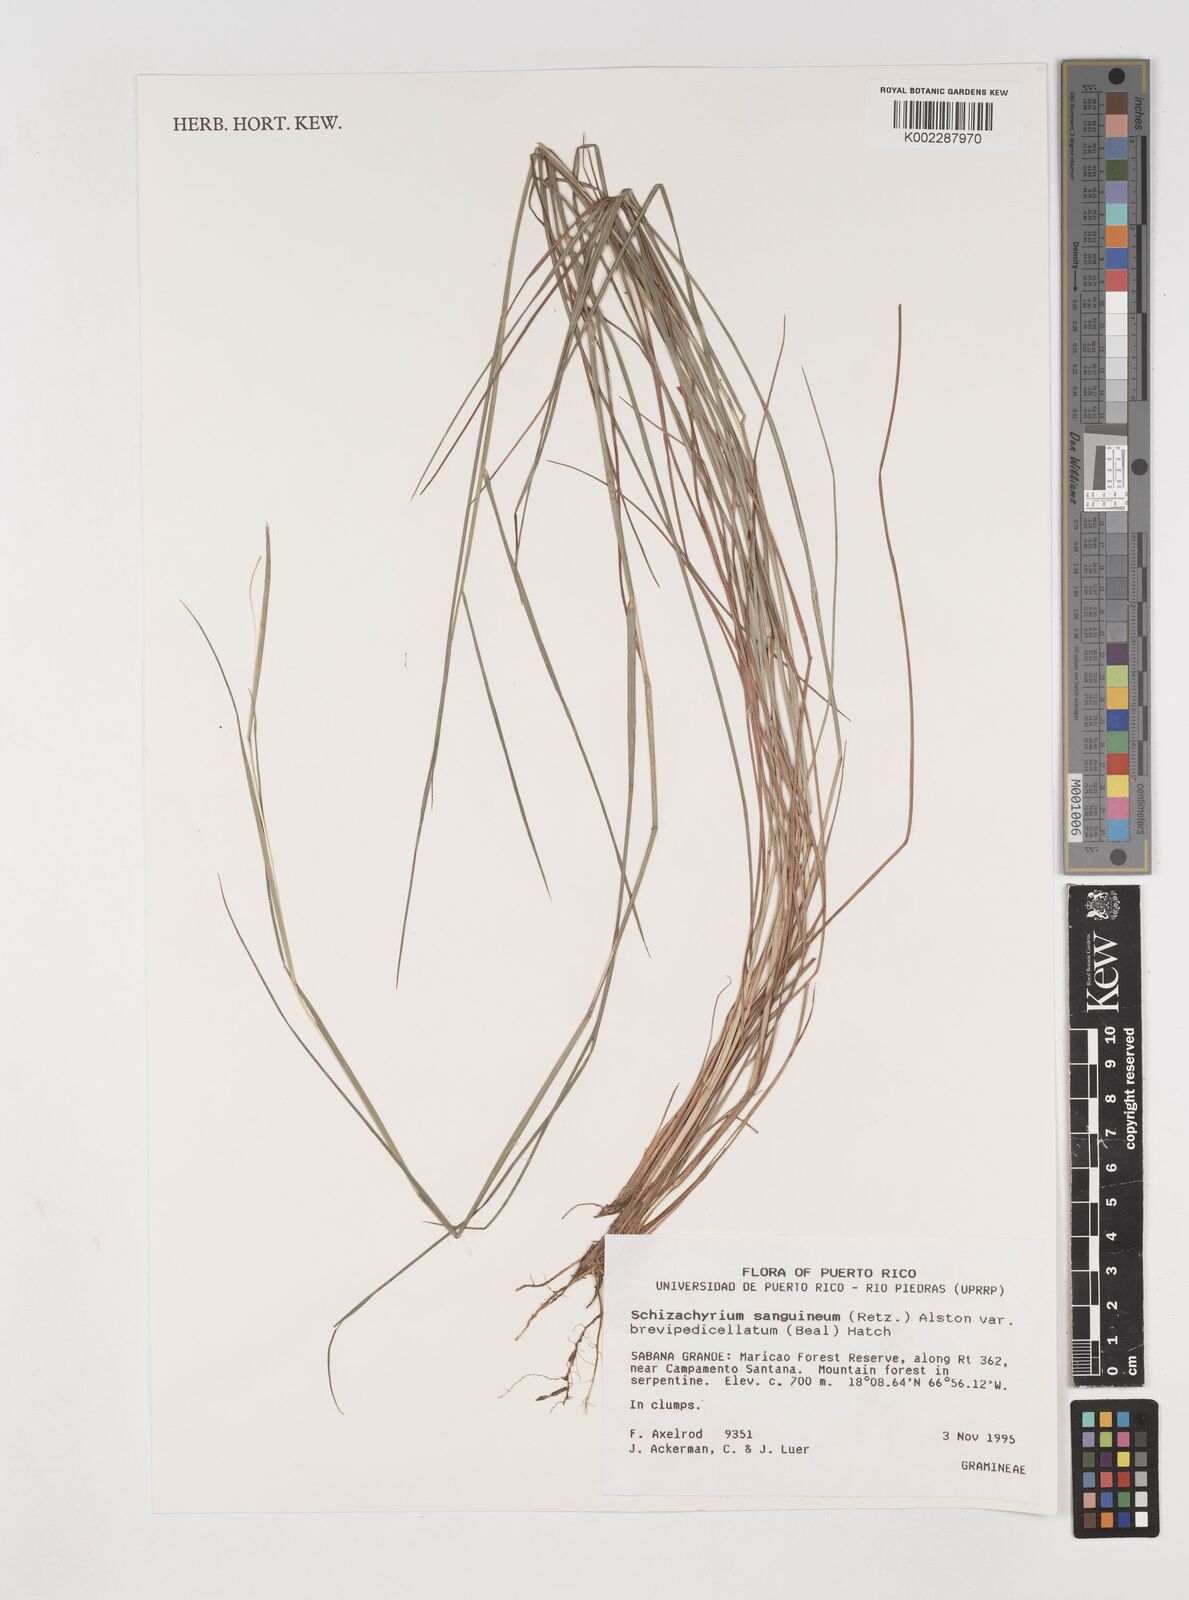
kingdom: Plantae
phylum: Tracheophyta
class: Liliopsida
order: Poales
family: Poaceae
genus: Schizachyrium
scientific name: Schizachyrium sanguineum
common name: Crimson bluestem
